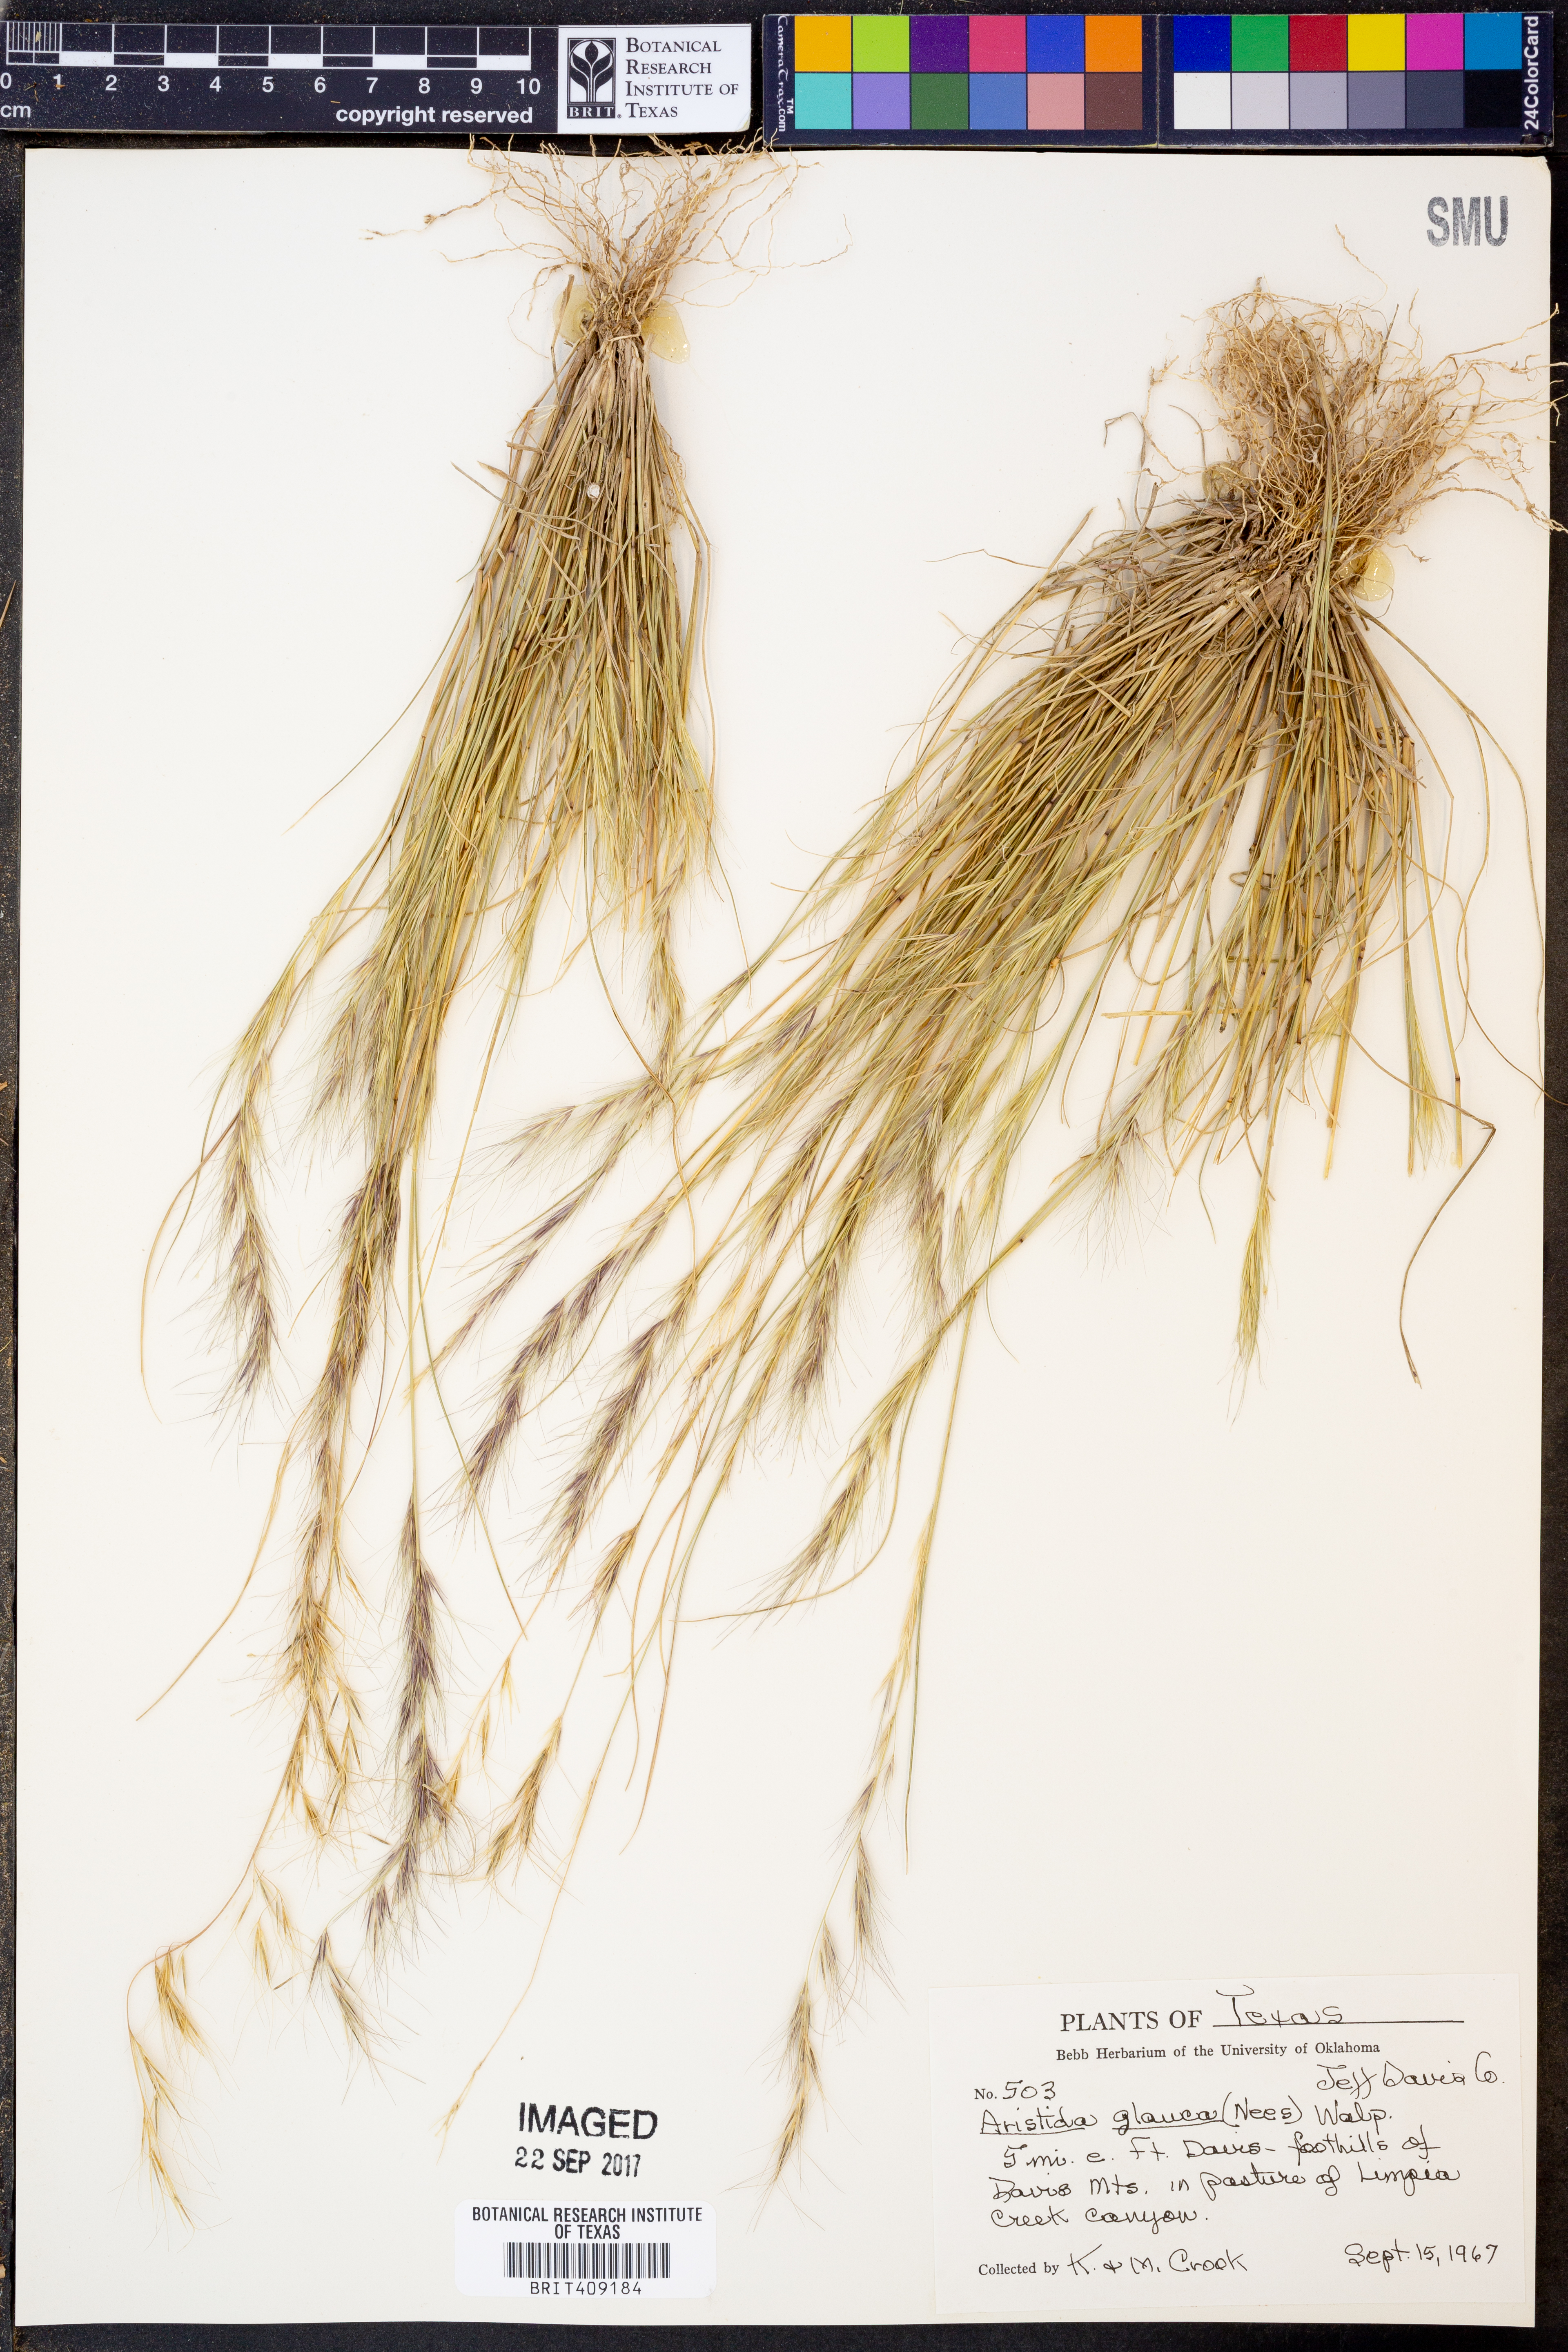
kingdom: Plantae
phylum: Tracheophyta
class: Liliopsida
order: Poales
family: Poaceae
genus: Aristida
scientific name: Aristida glauca
